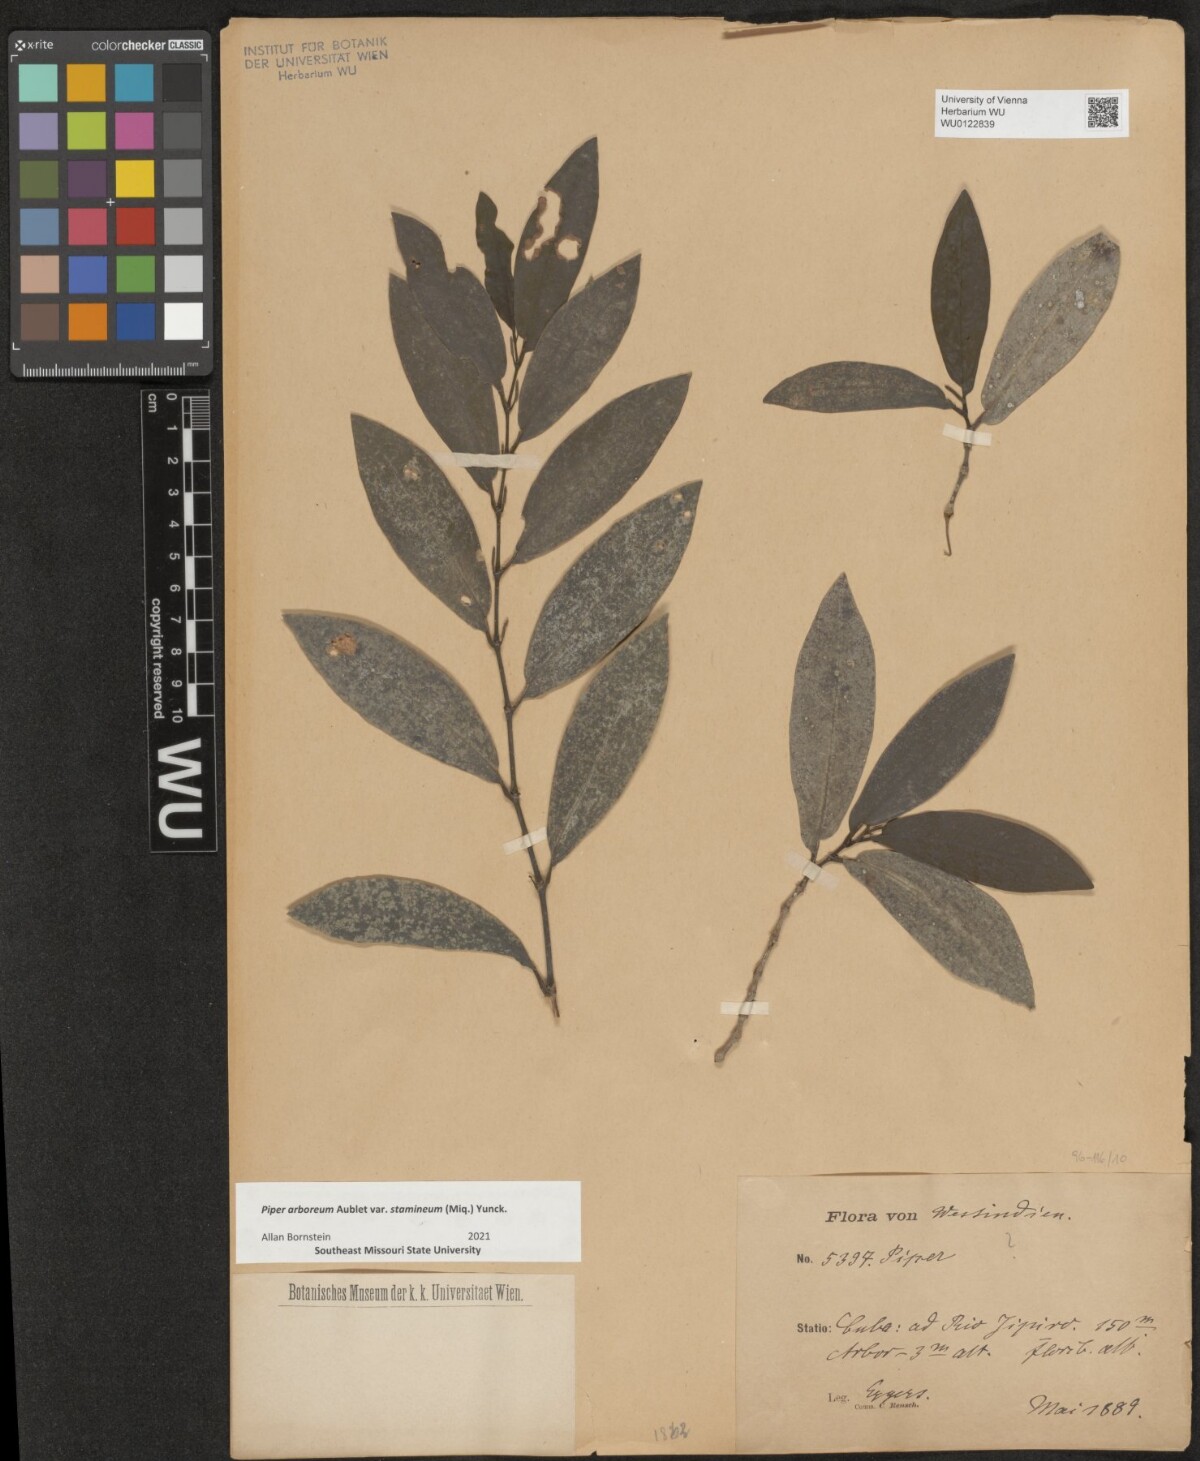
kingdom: Plantae
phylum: Tracheophyta
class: Magnoliopsida
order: Piperales
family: Piperaceae
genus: Piper
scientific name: Piper arboreum
